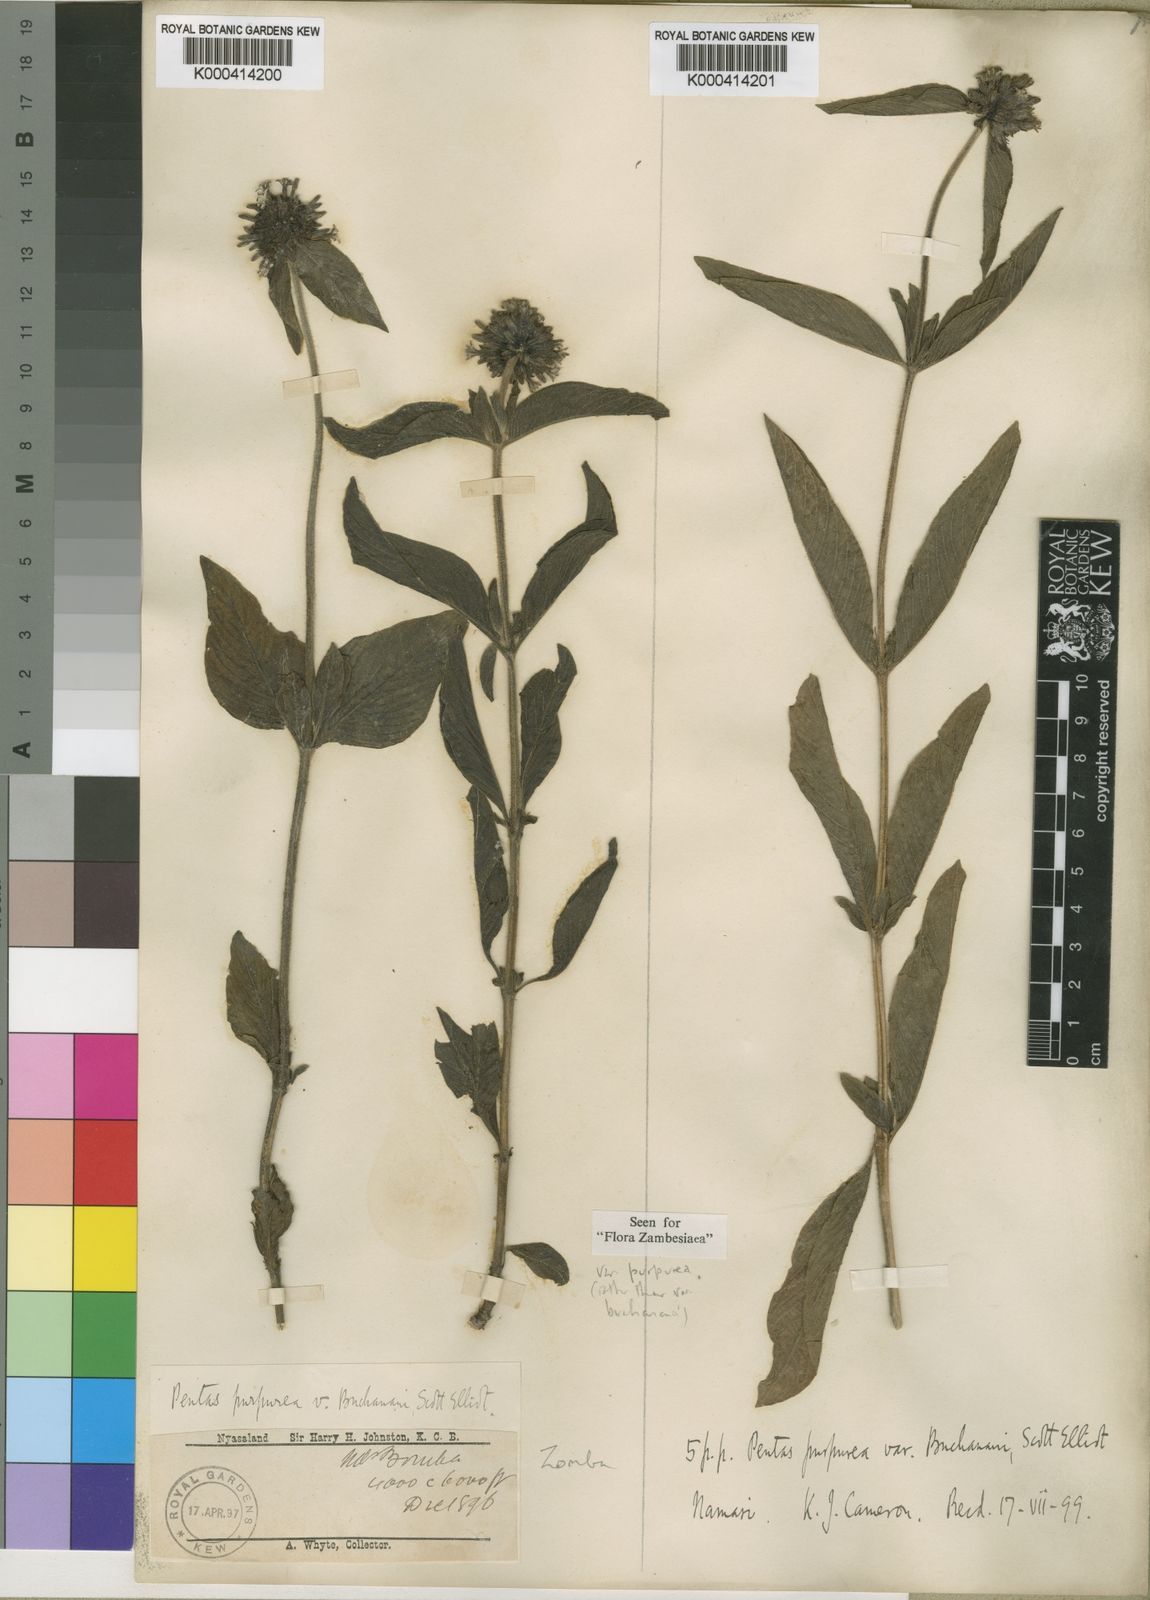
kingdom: Plantae
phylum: Tracheophyta
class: Magnoliopsida
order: Gentianales
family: Rubiaceae
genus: Pentas
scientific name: Pentas purpurea
